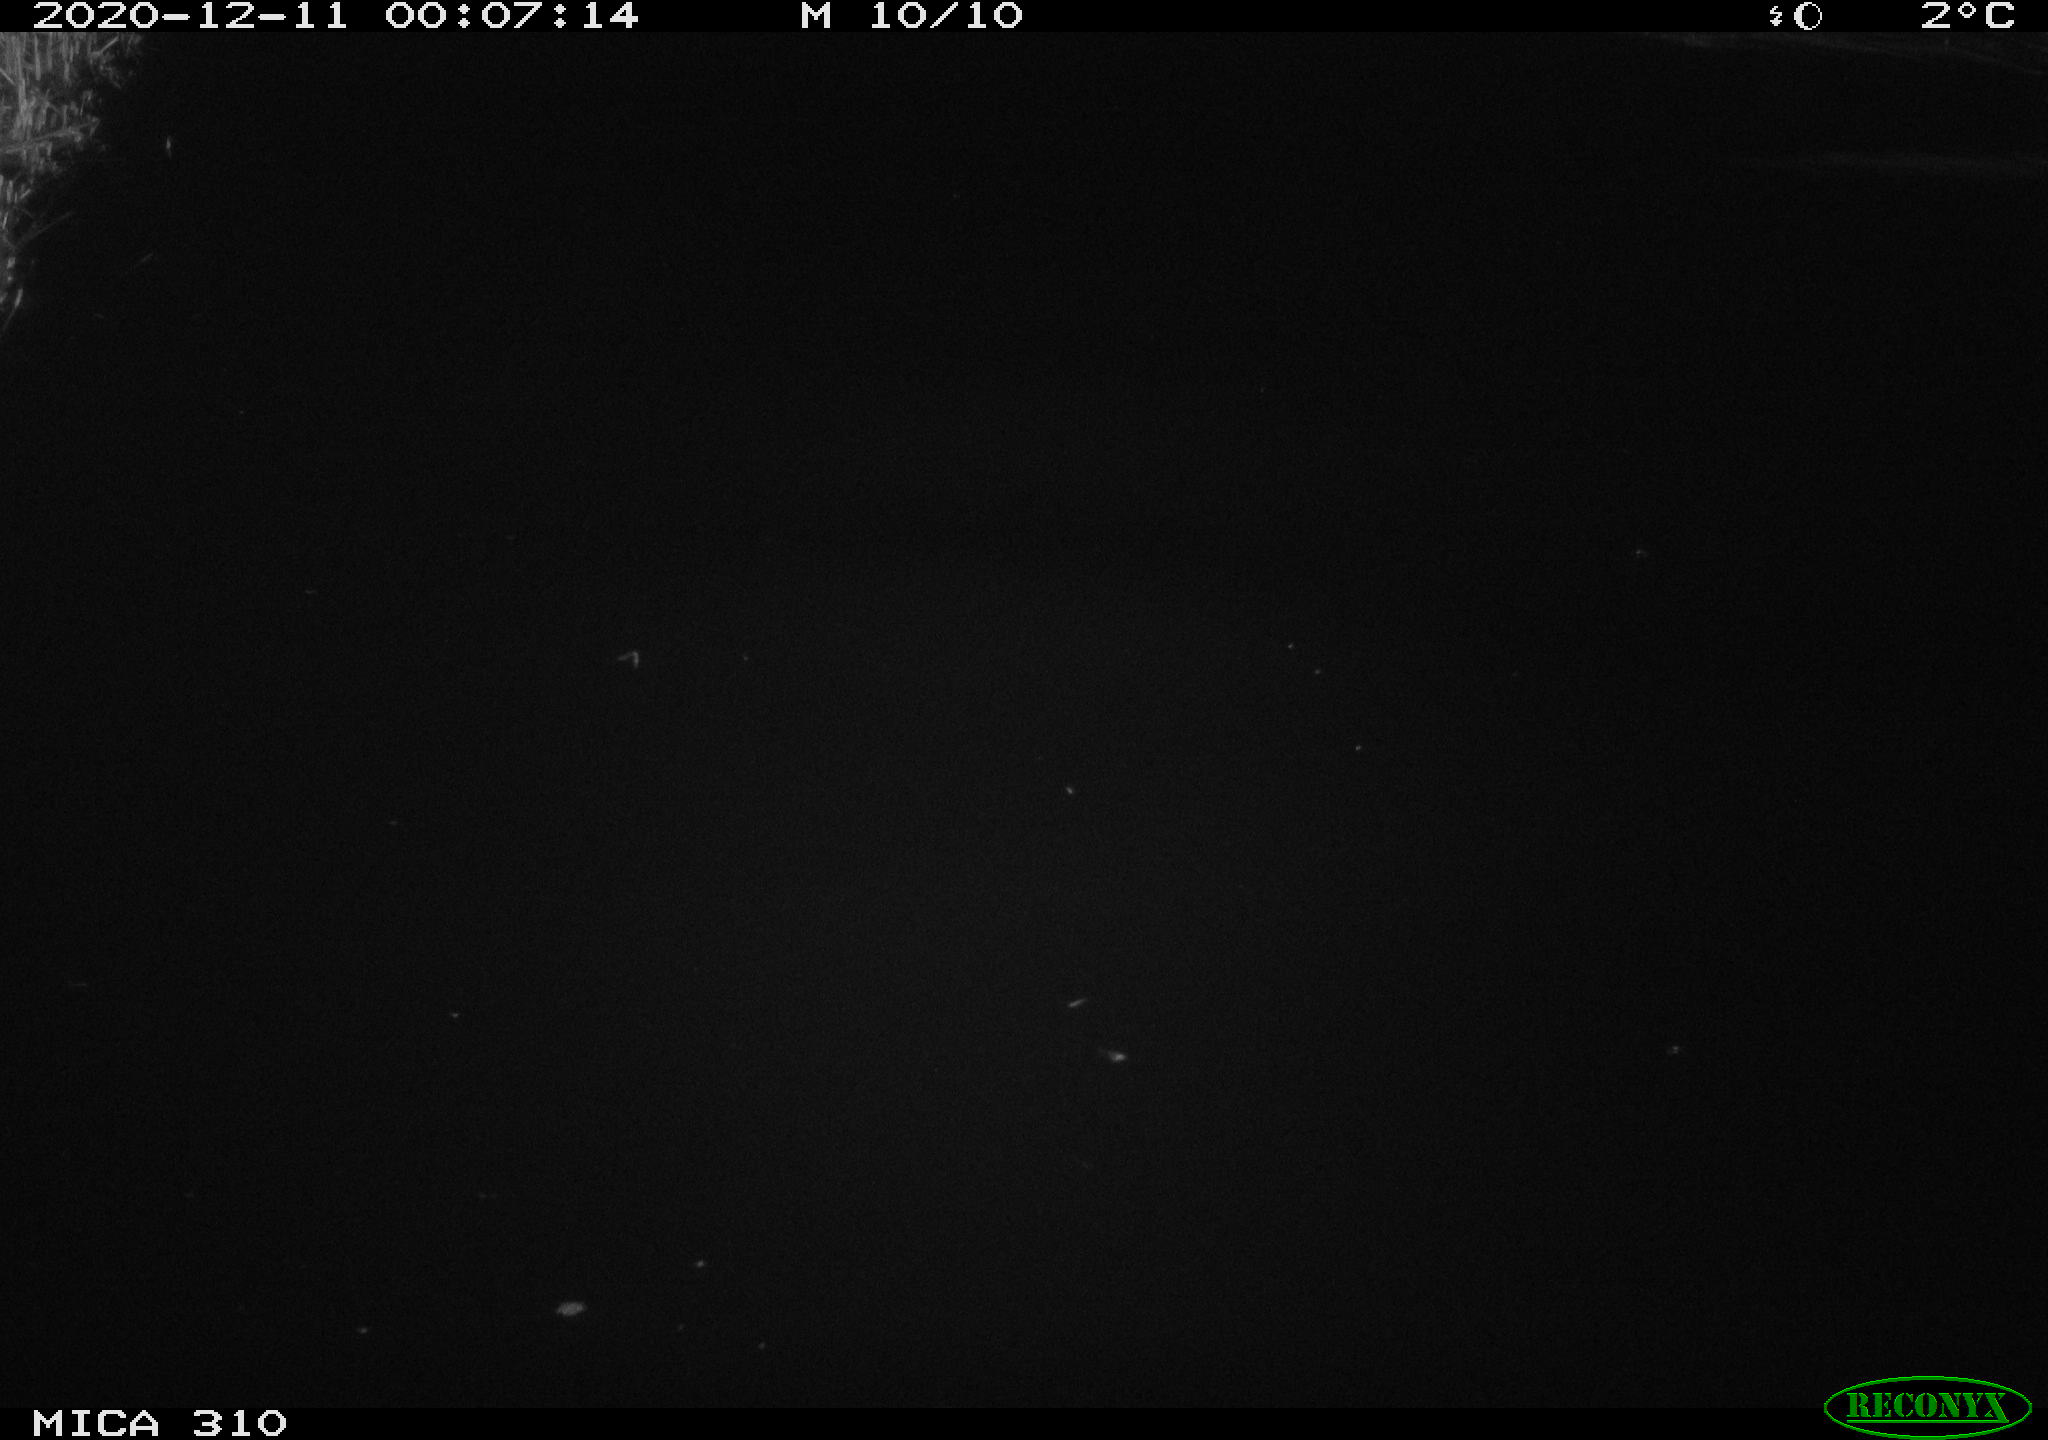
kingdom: Animalia
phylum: Chordata
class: Aves
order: Anseriformes
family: Anatidae
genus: Anas
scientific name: Anas platyrhynchos
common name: Mallard
